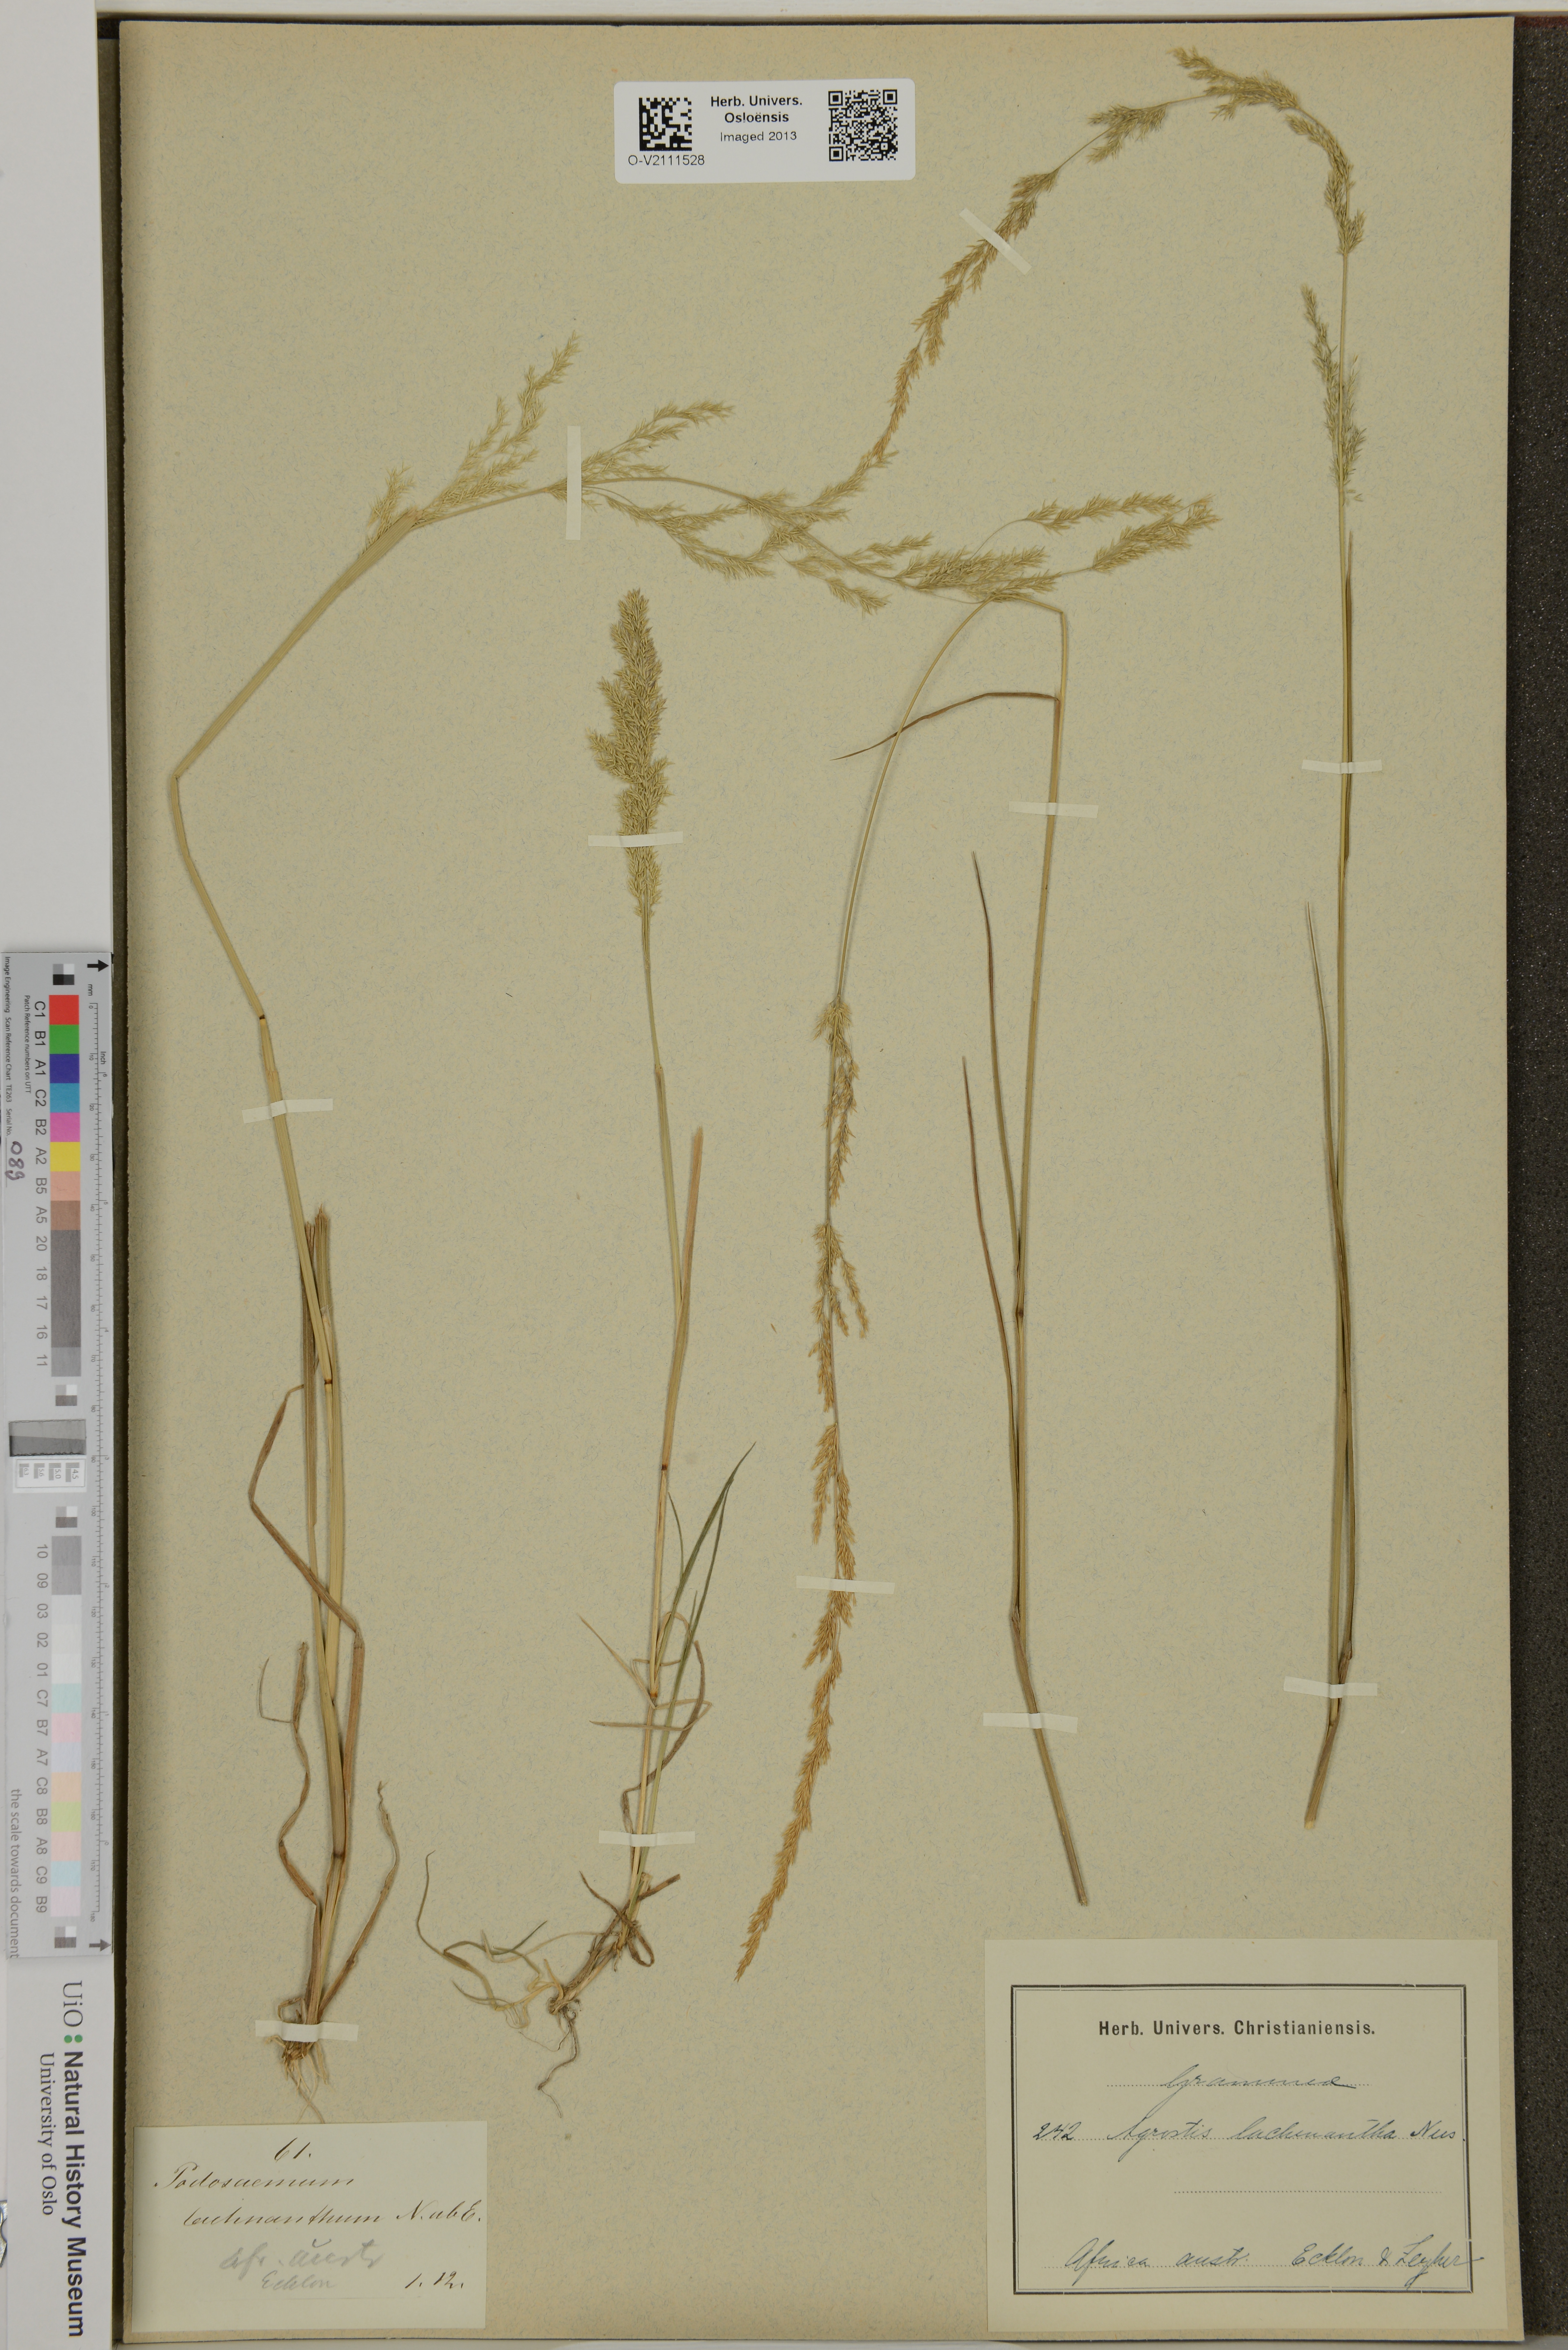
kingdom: Plantae
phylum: Tracheophyta
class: Liliopsida
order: Poales
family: Poaceae
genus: Lachnagrostis
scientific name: Lachnagrostis lachnantha
